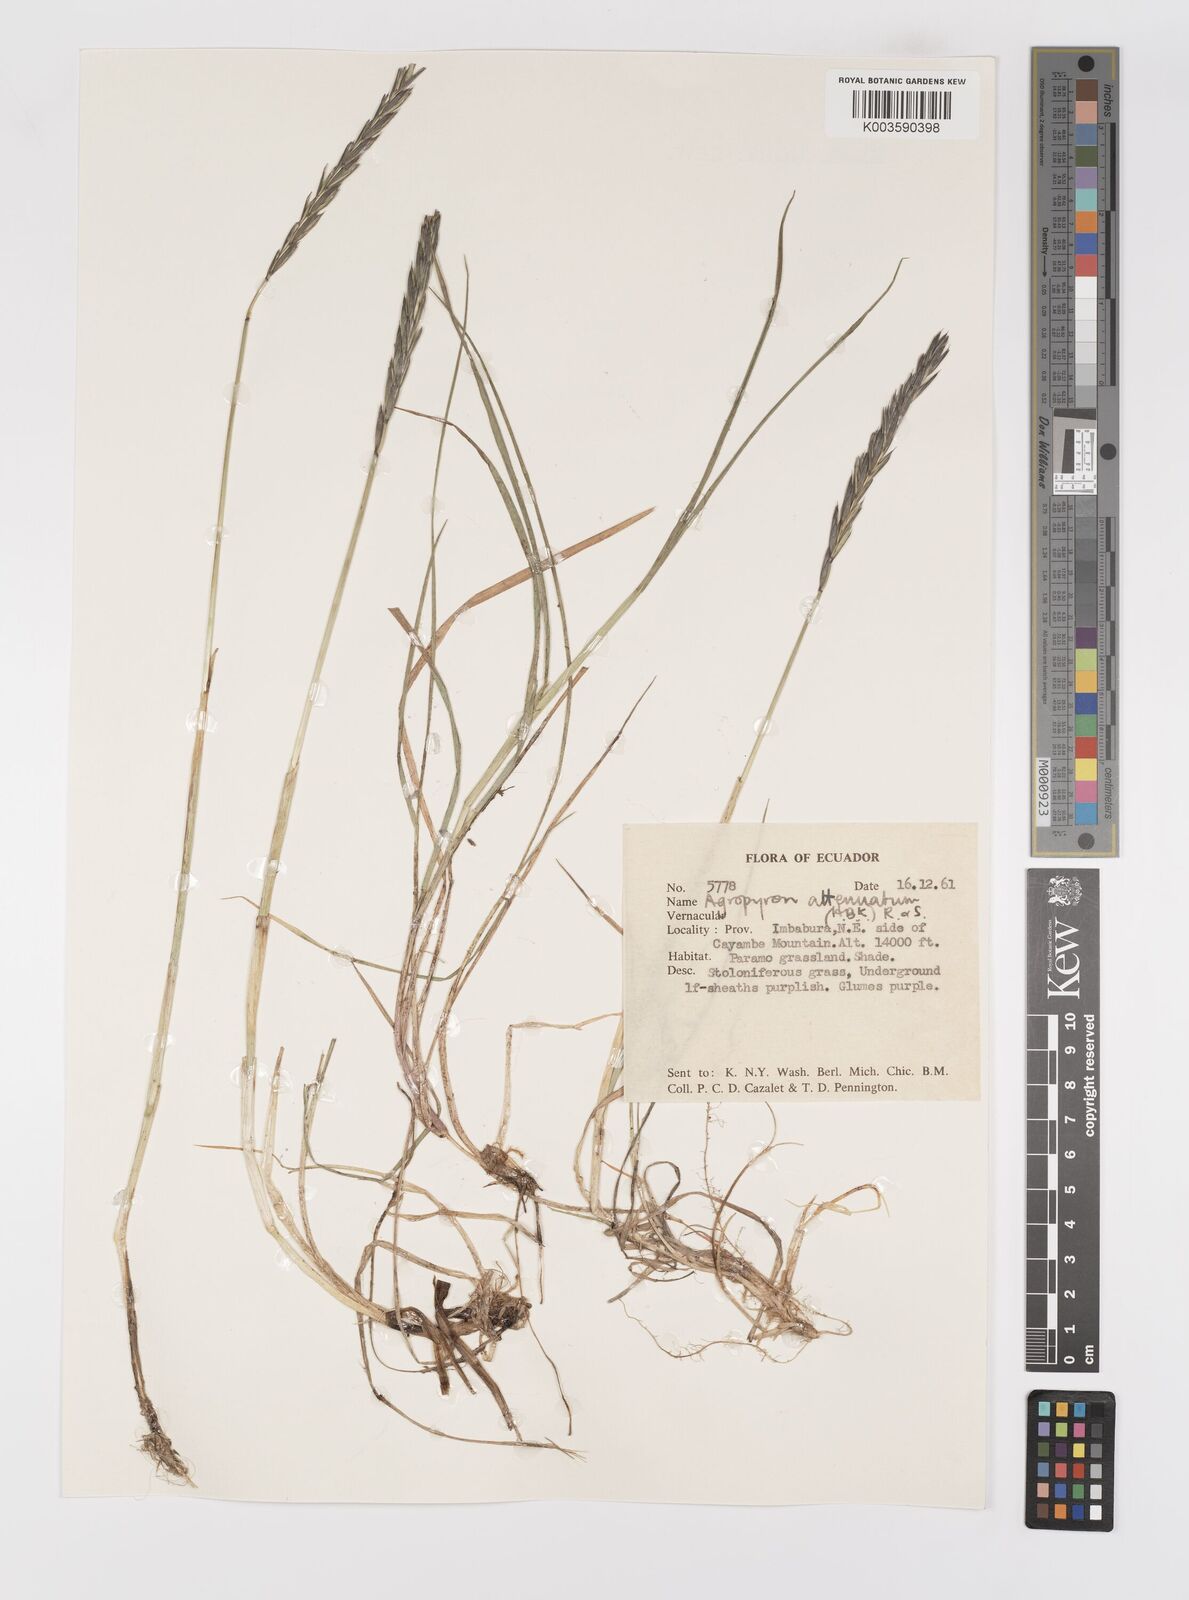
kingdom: Plantae
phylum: Tracheophyta
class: Liliopsida
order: Poales
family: Poaceae
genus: Elymus
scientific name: Elymus cordilleranus
